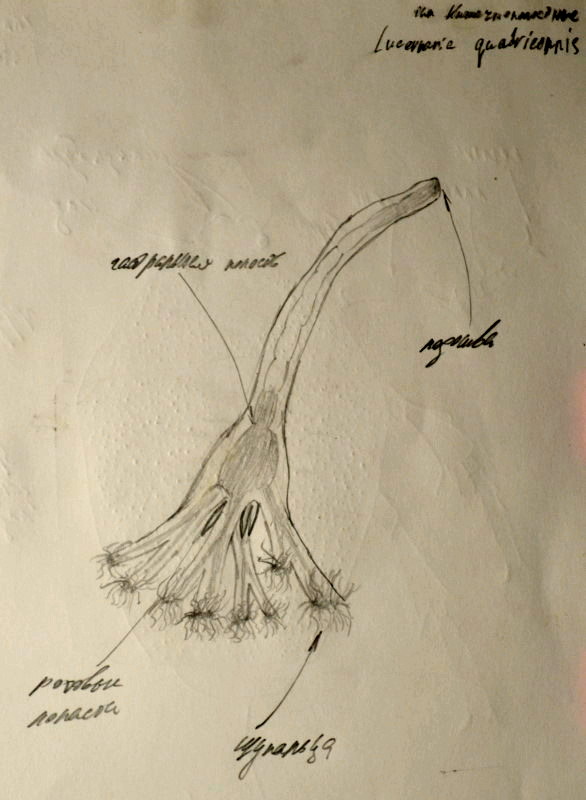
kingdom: Animalia
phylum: Cnidaria
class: Staurozoa
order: Stauromedusae
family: Lucernariidae
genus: Lucernaria
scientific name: Lucernaria quadricornis
